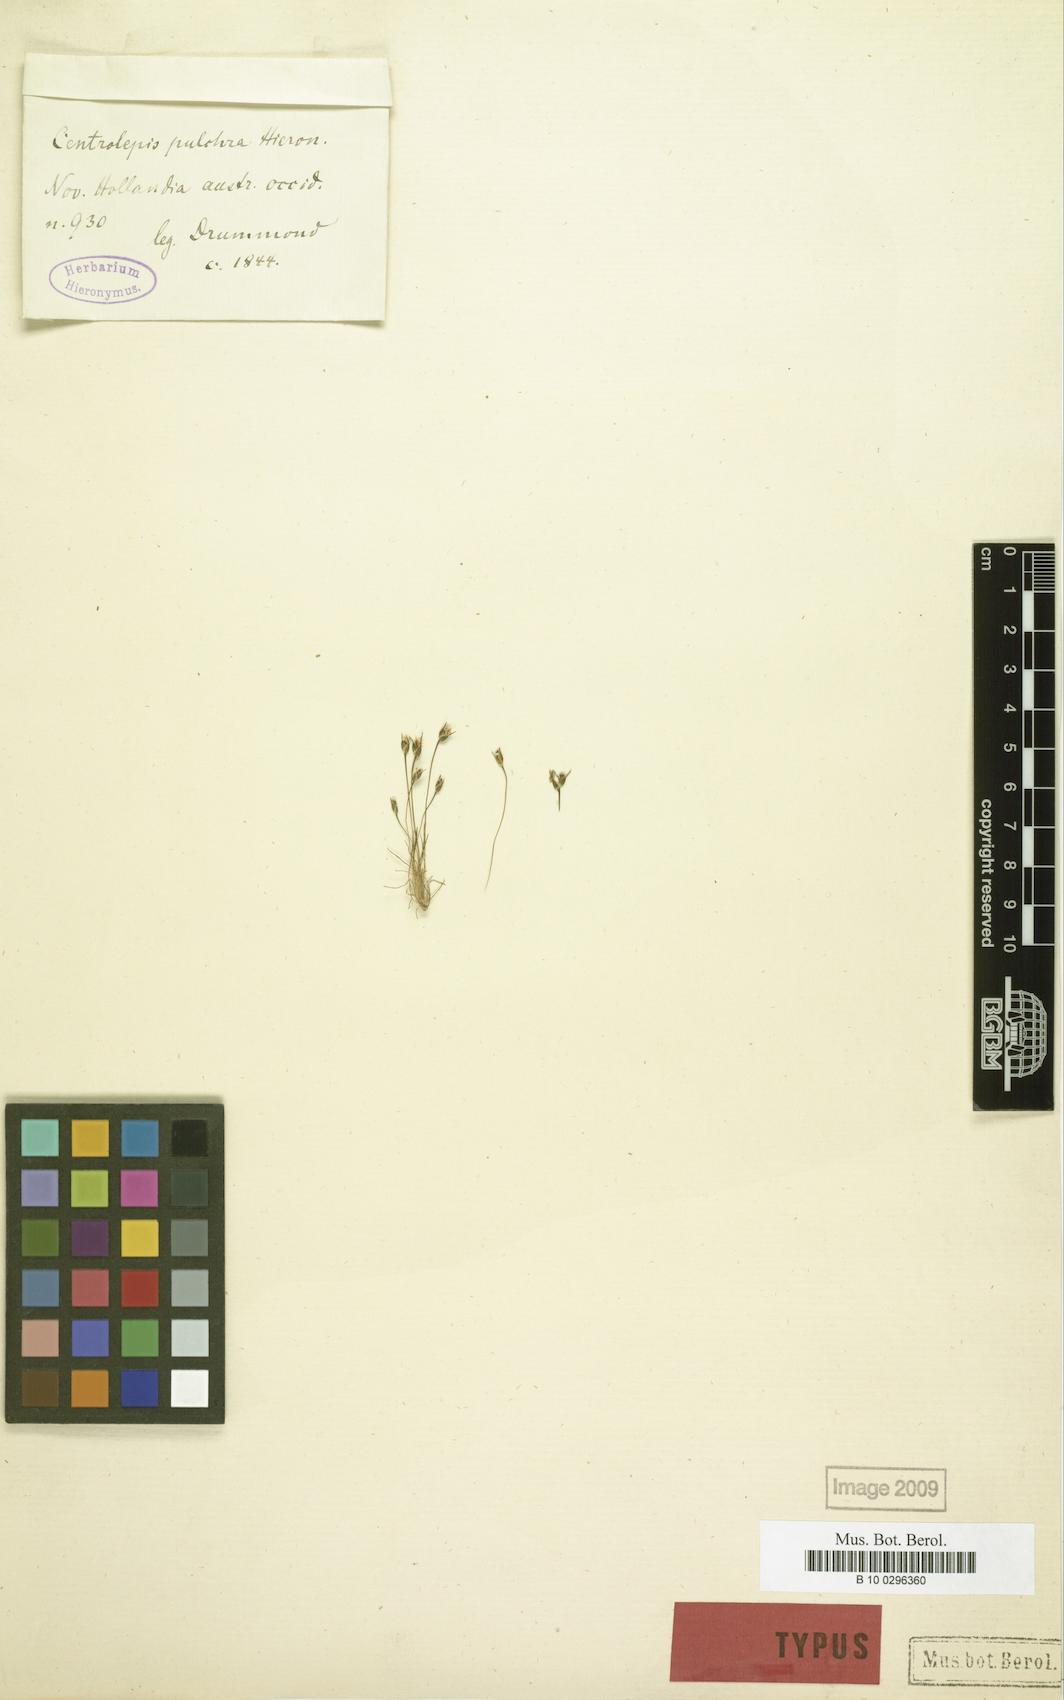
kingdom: Plantae
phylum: Tracheophyta
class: Liliopsida
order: Poales
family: Restionaceae
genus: Centrolepis
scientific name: Centrolepis drummondiana
